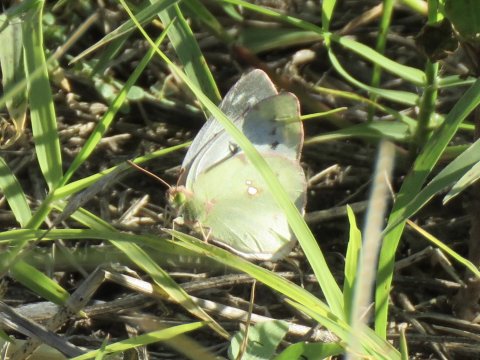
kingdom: Animalia
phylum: Arthropoda
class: Insecta
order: Lepidoptera
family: Pieridae
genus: Colias
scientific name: Colias philodice
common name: Clouded Sulphur
